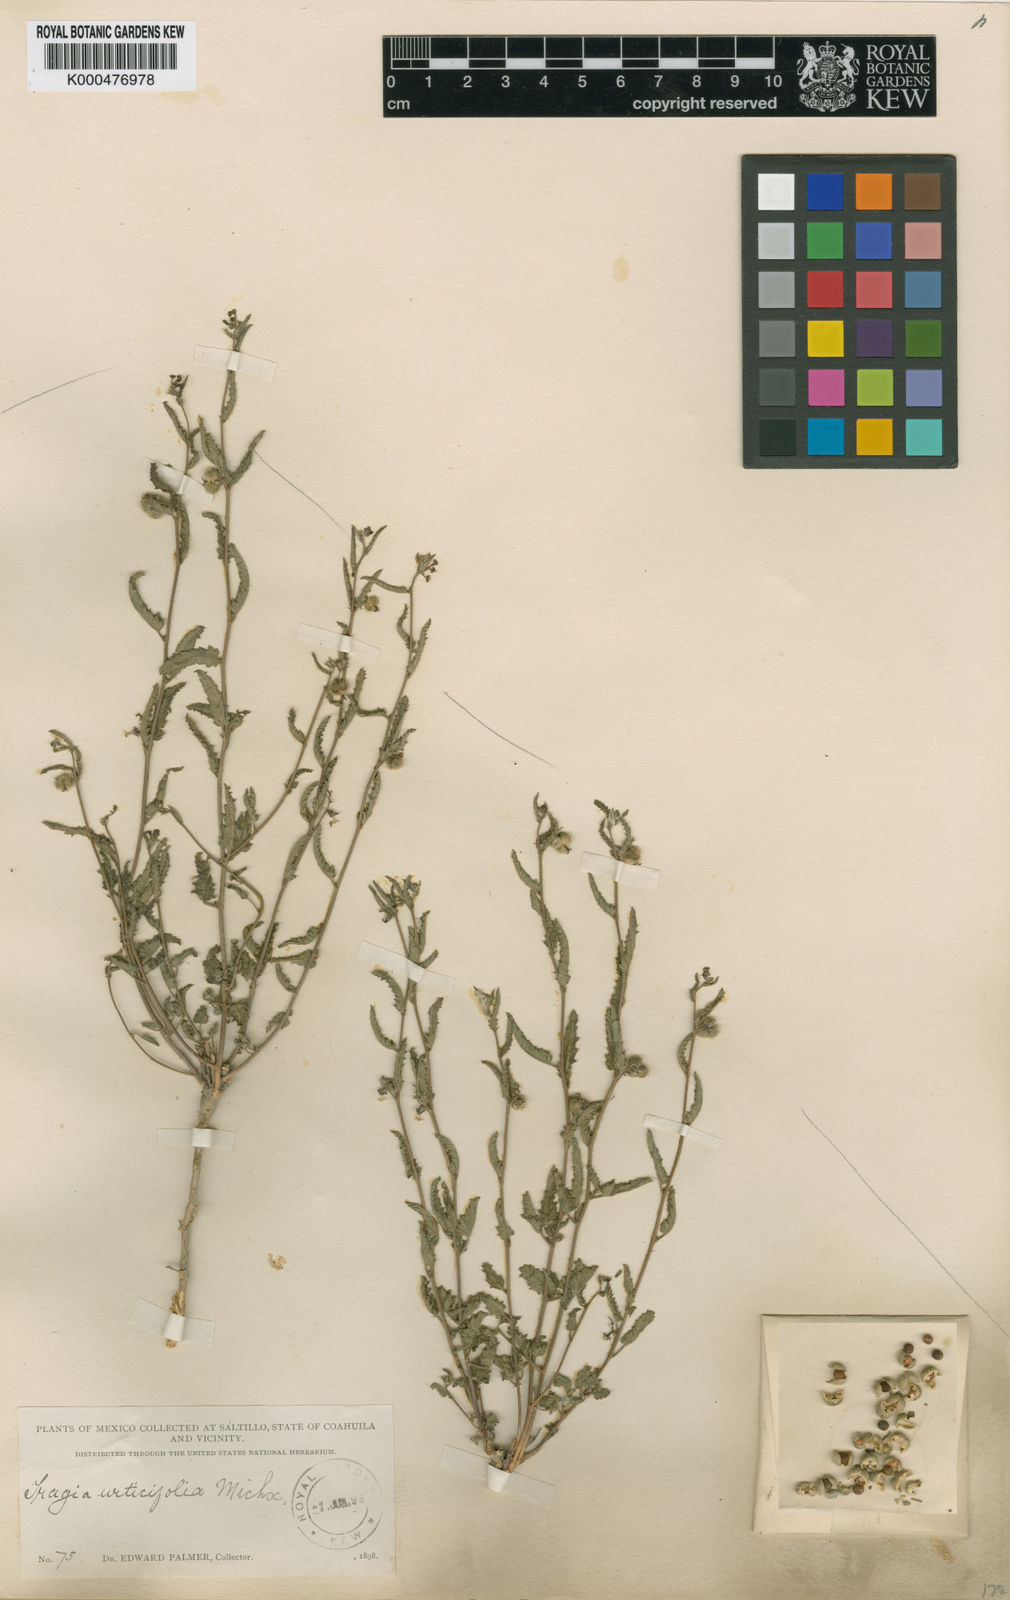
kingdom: Plantae
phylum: Tracheophyta
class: Magnoliopsida
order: Malpighiales
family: Euphorbiaceae
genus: Tragia
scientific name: Tragia nepetifolia
